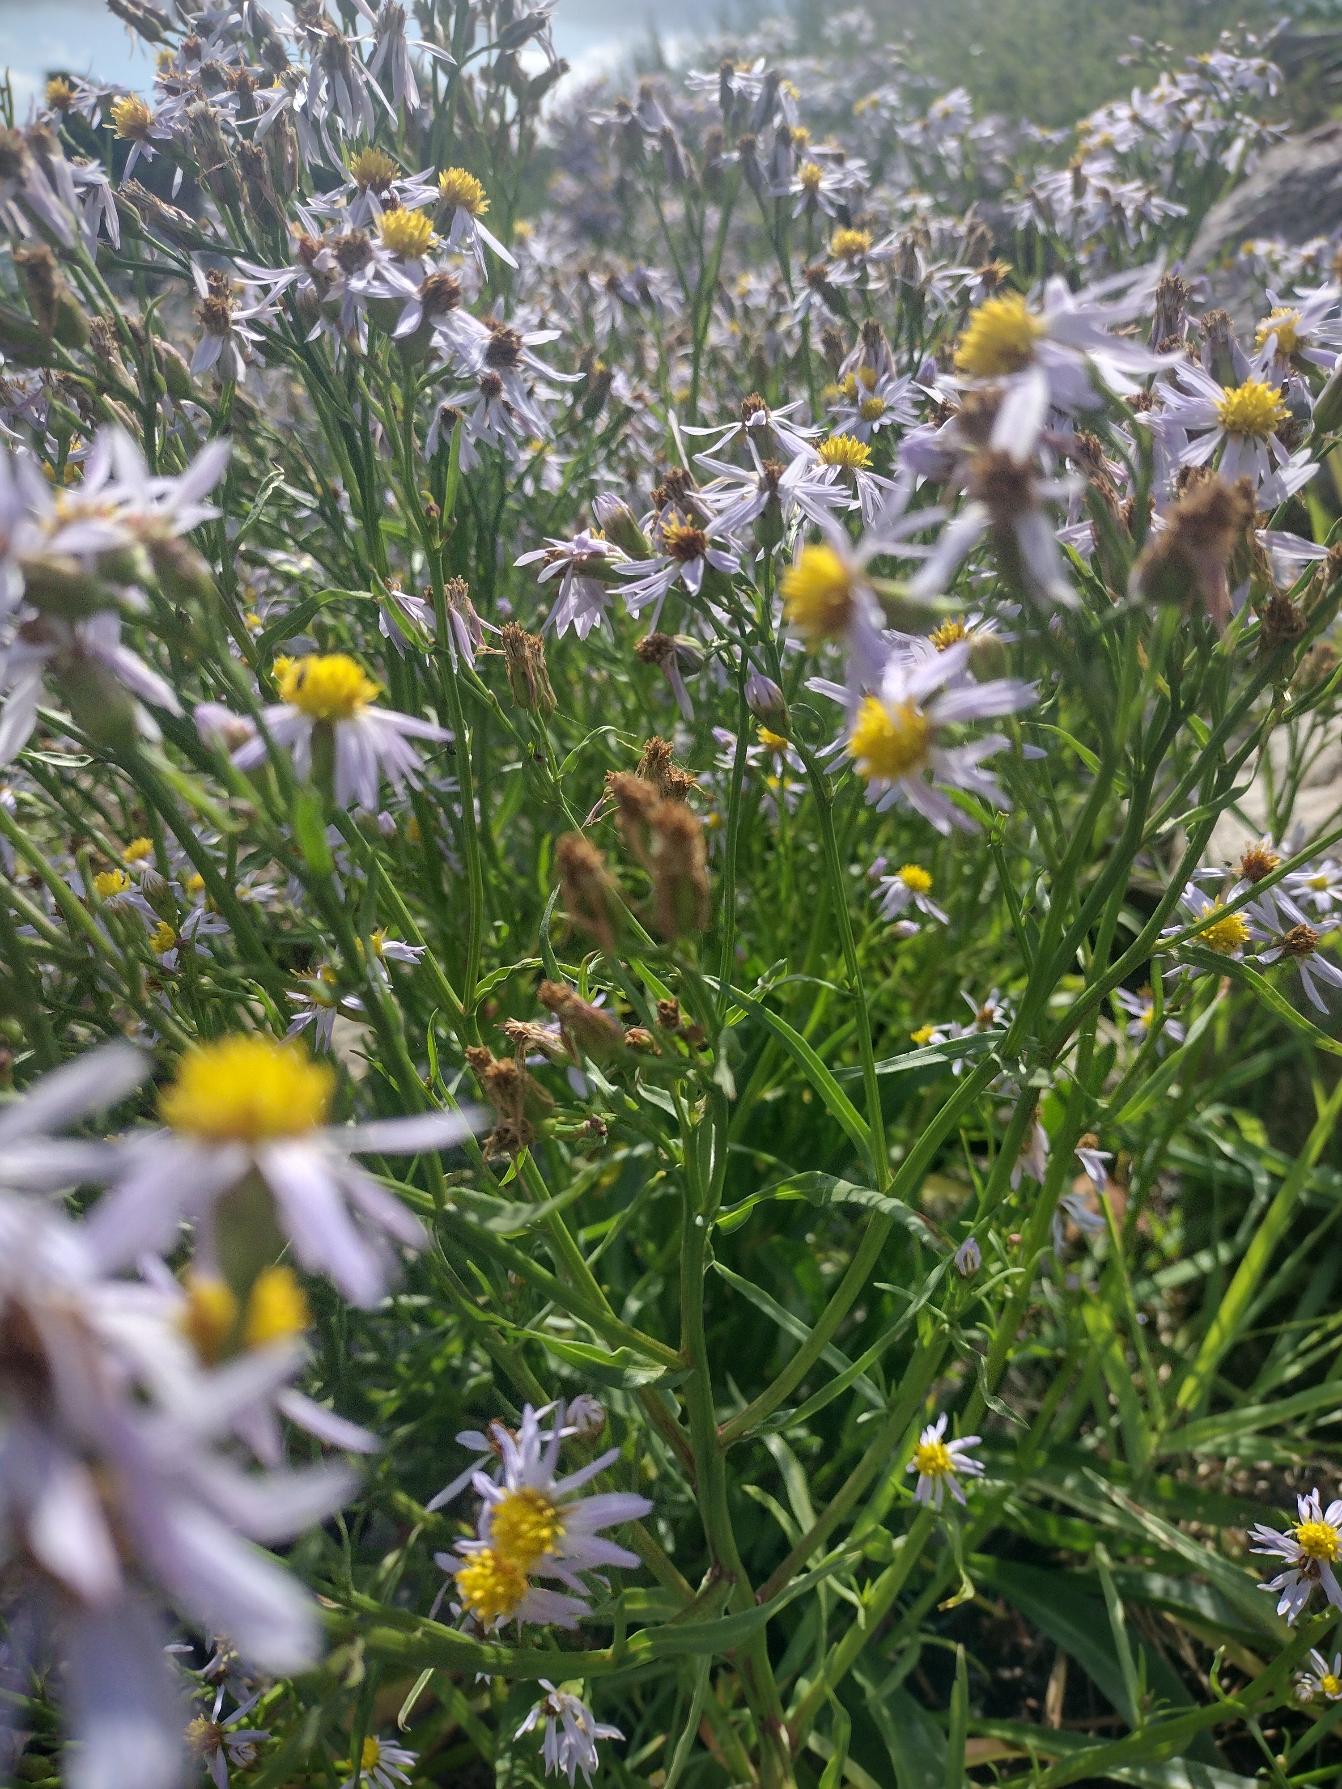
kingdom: Plantae
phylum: Tracheophyta
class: Magnoliopsida
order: Asterales
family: Asteraceae
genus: Tripolium
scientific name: Tripolium pannonicum
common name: Strandasters
